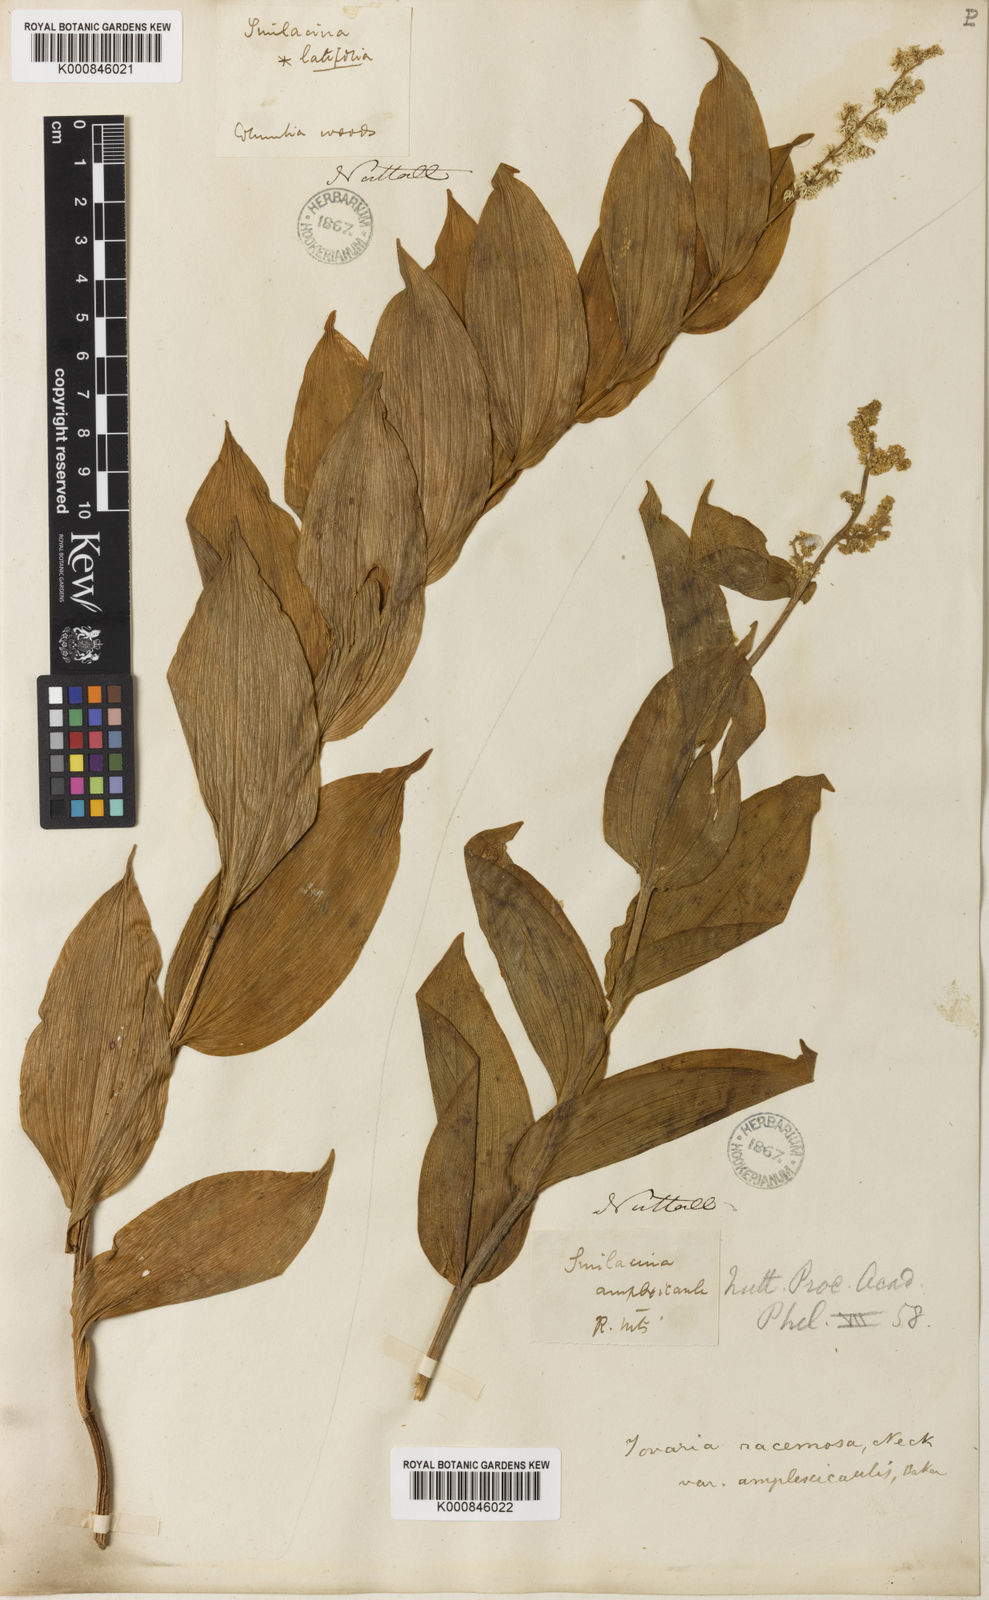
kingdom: Plantae
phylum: Tracheophyta
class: Liliopsida
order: Asparagales
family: Asparagaceae
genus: Maianthemum
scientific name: Maianthemum racemosum
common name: False spikenard
